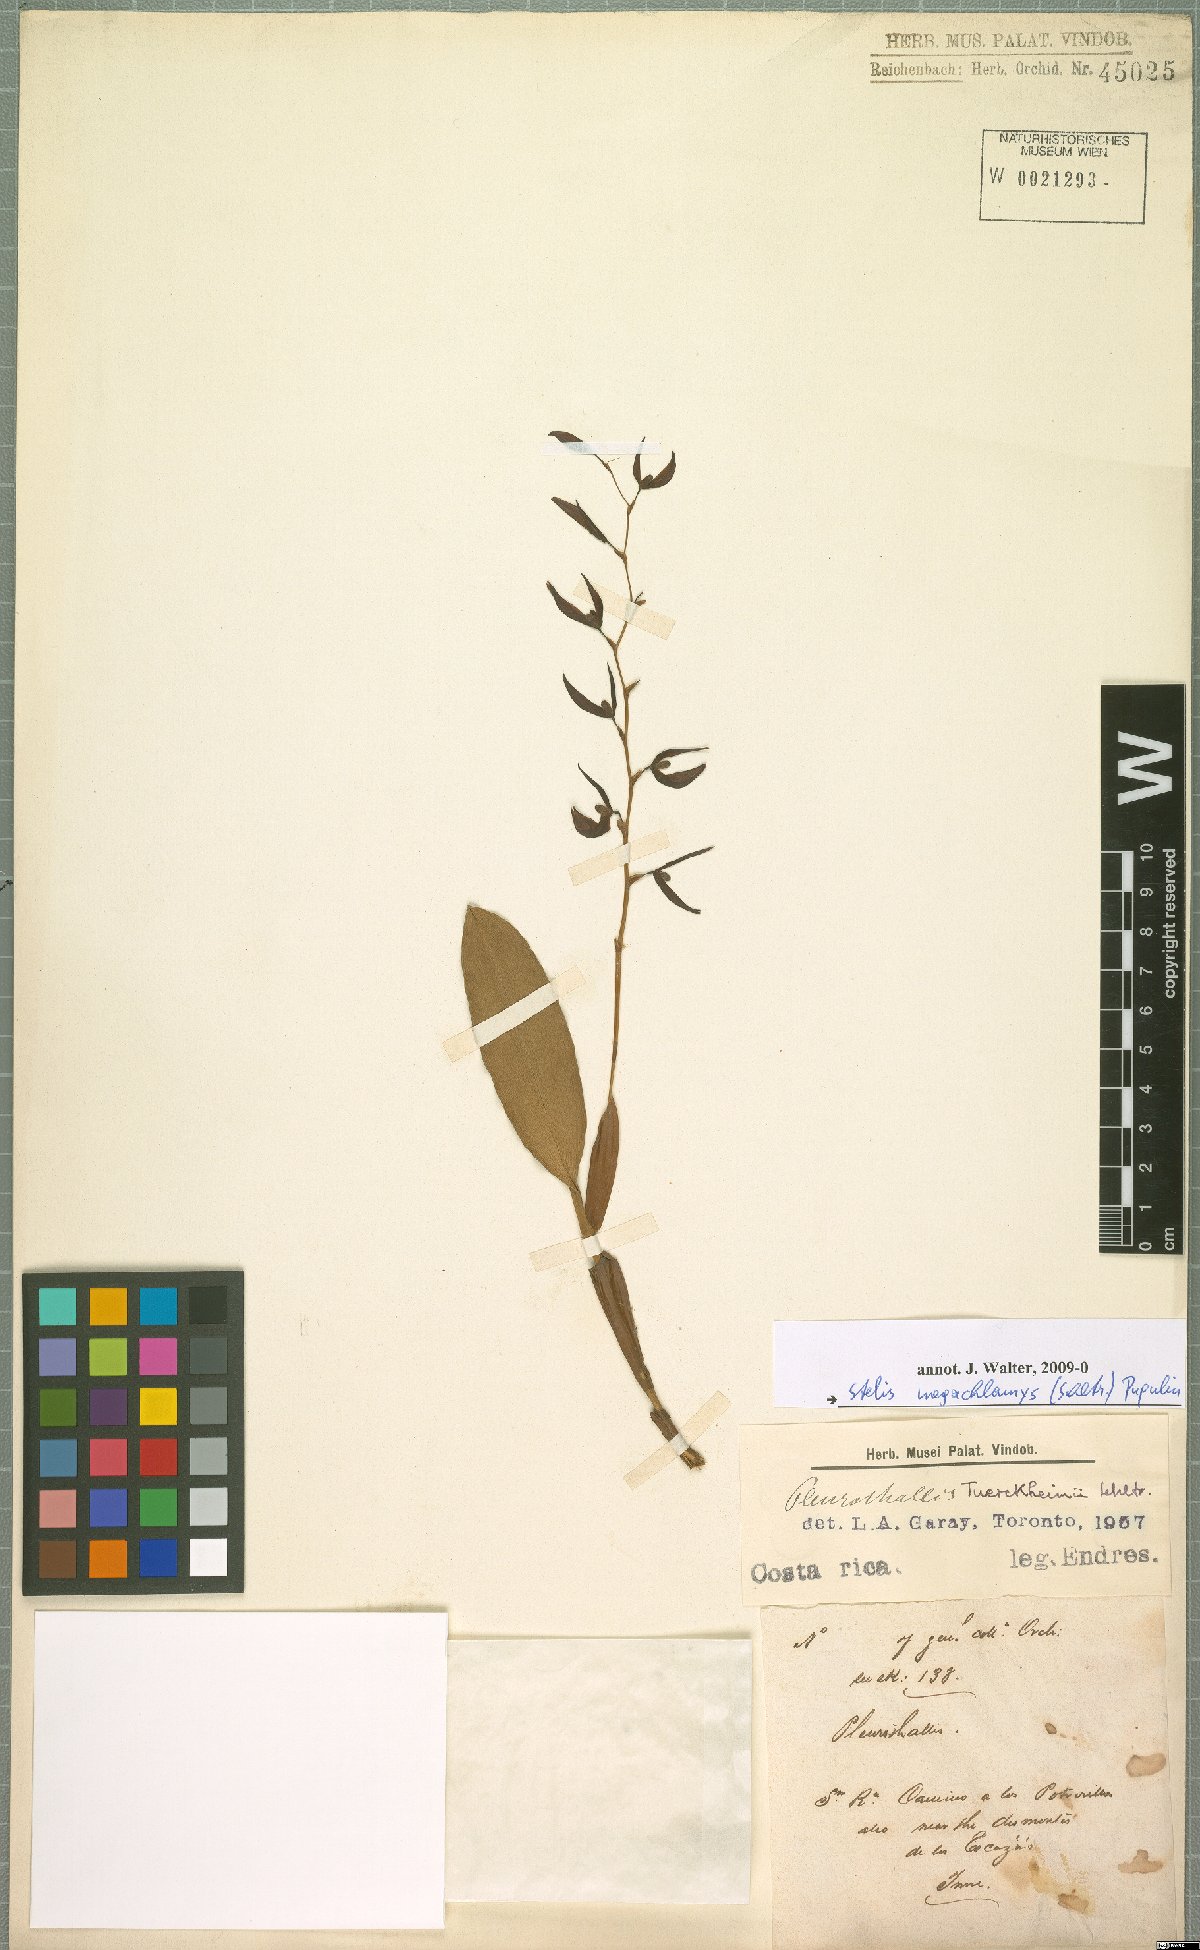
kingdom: Plantae
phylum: Tracheophyta
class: Liliopsida
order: Asparagales
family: Orchidaceae
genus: Stelis
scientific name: Stelis megachlamys
